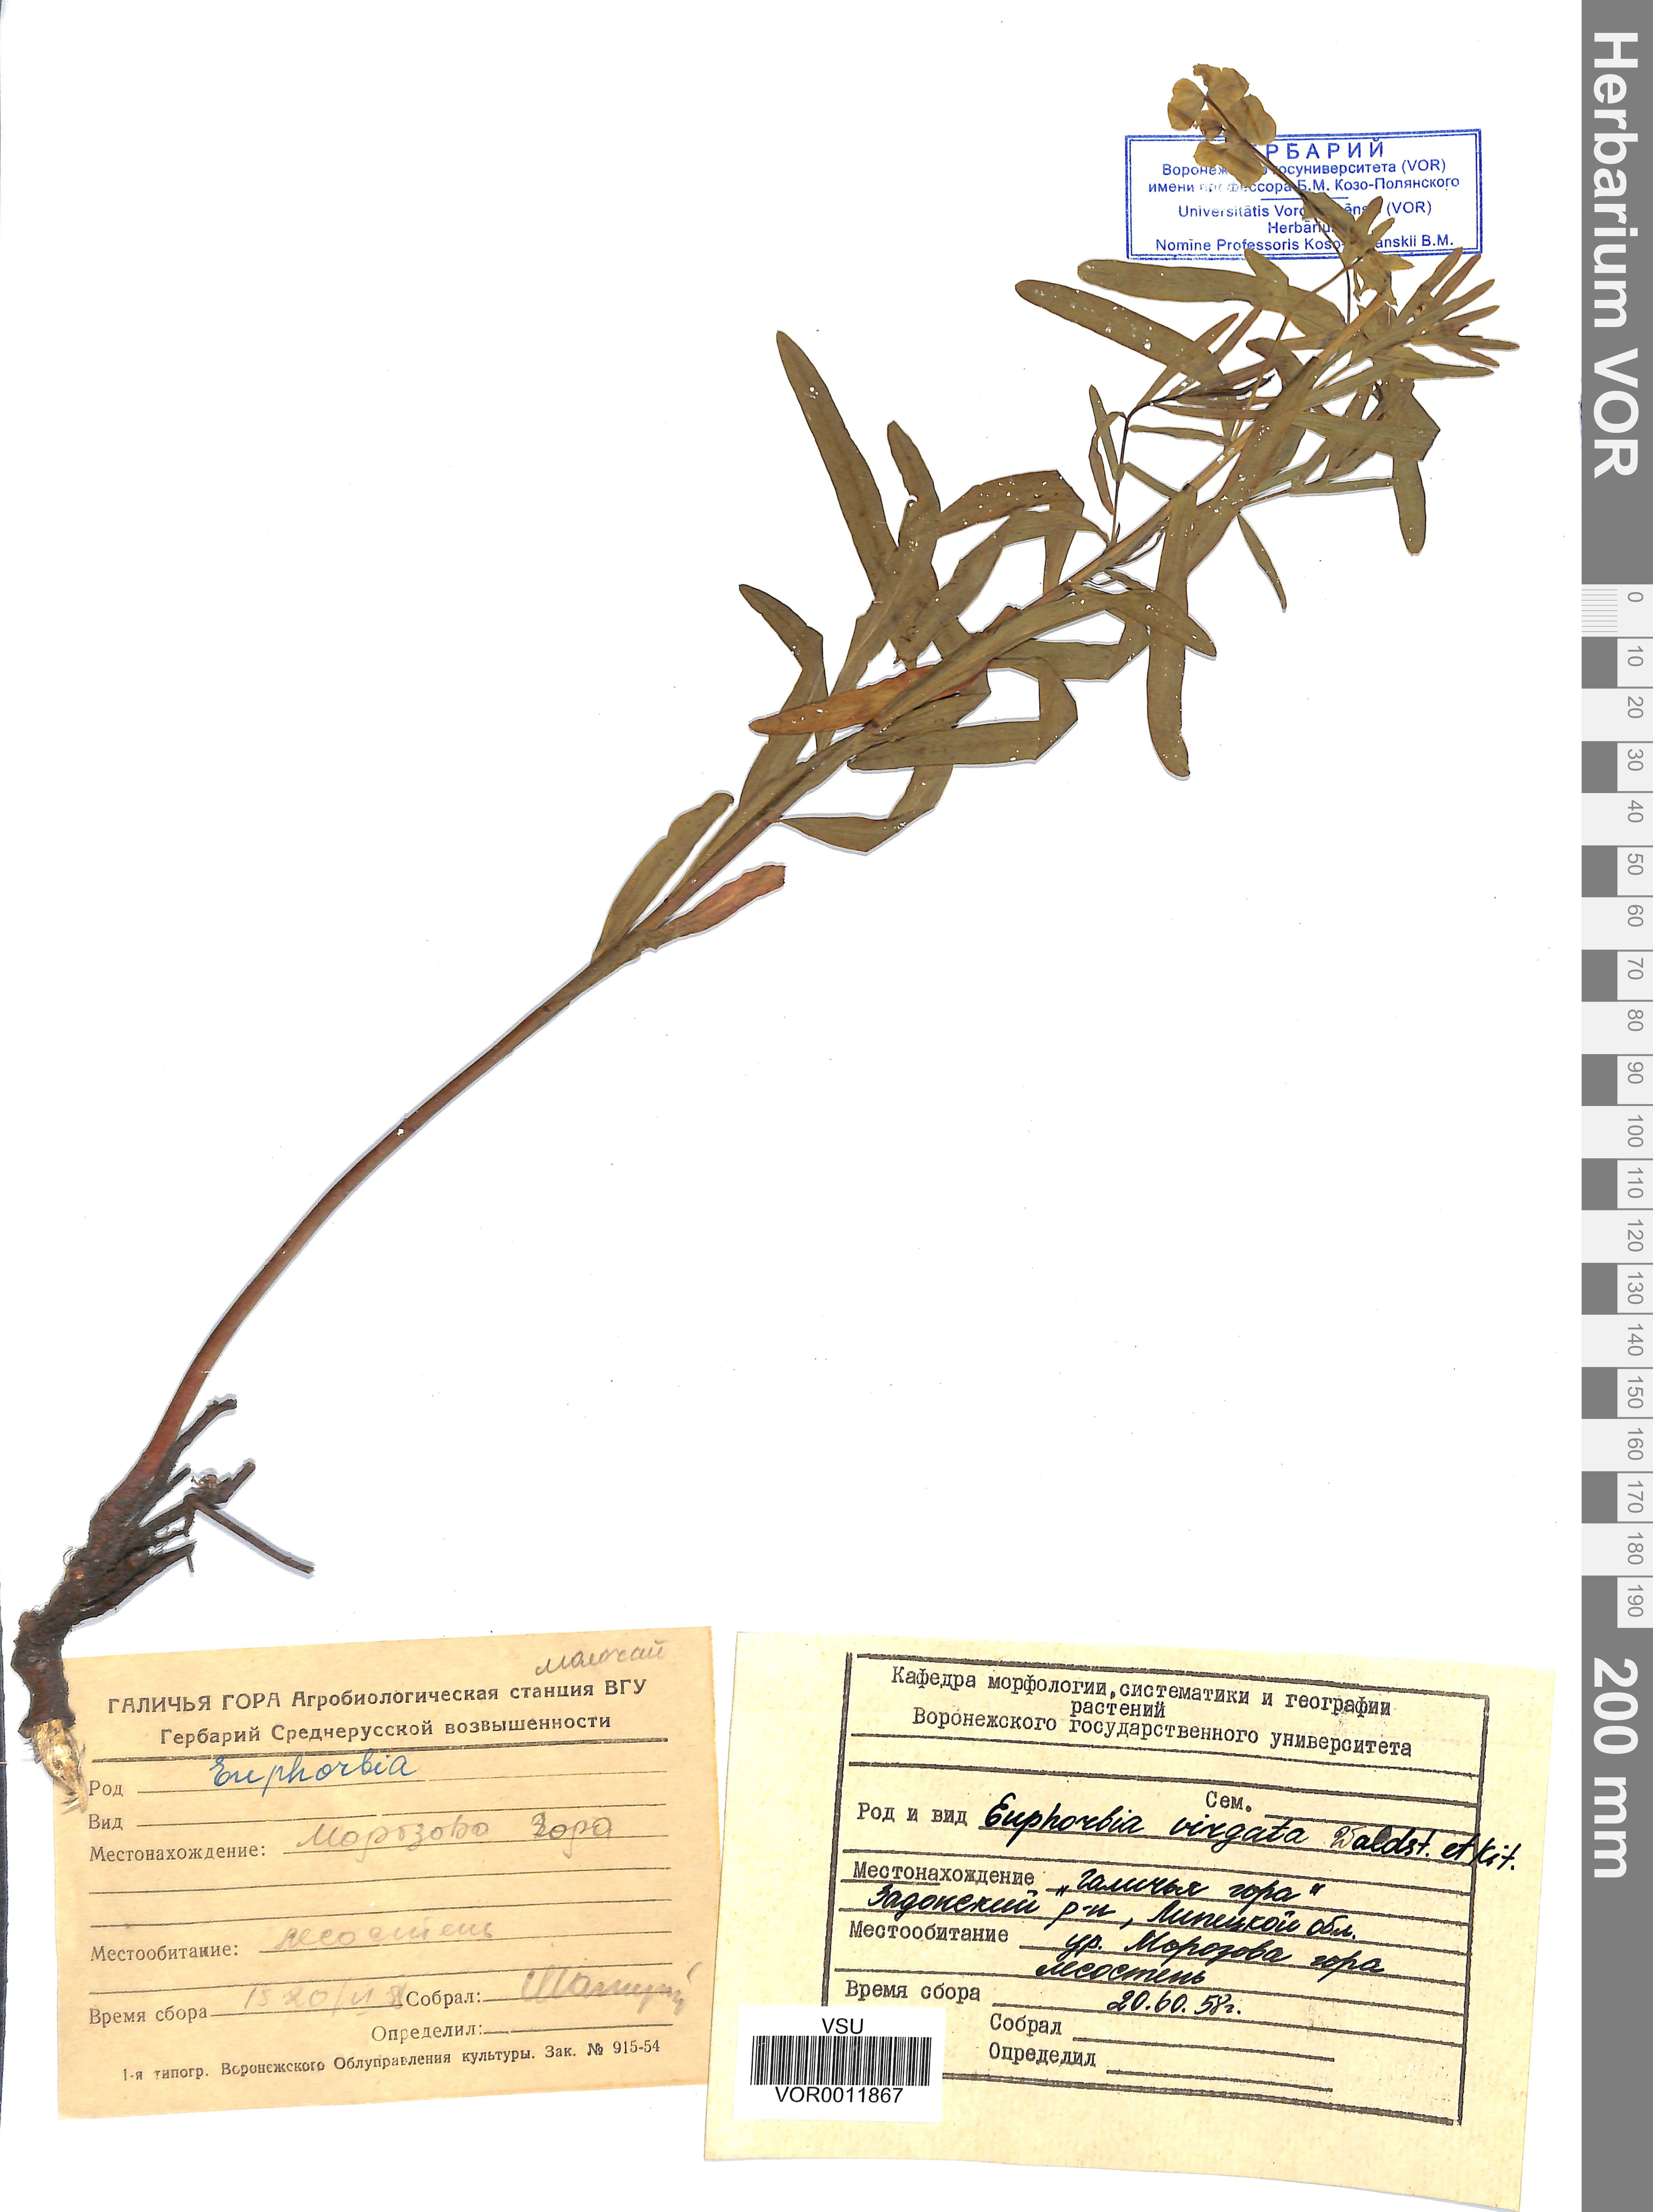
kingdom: Plantae
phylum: Tracheophyta
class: Magnoliopsida
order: Malpighiales
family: Euphorbiaceae
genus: Euphorbia
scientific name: Euphorbia virgata
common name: Leafy spurge
